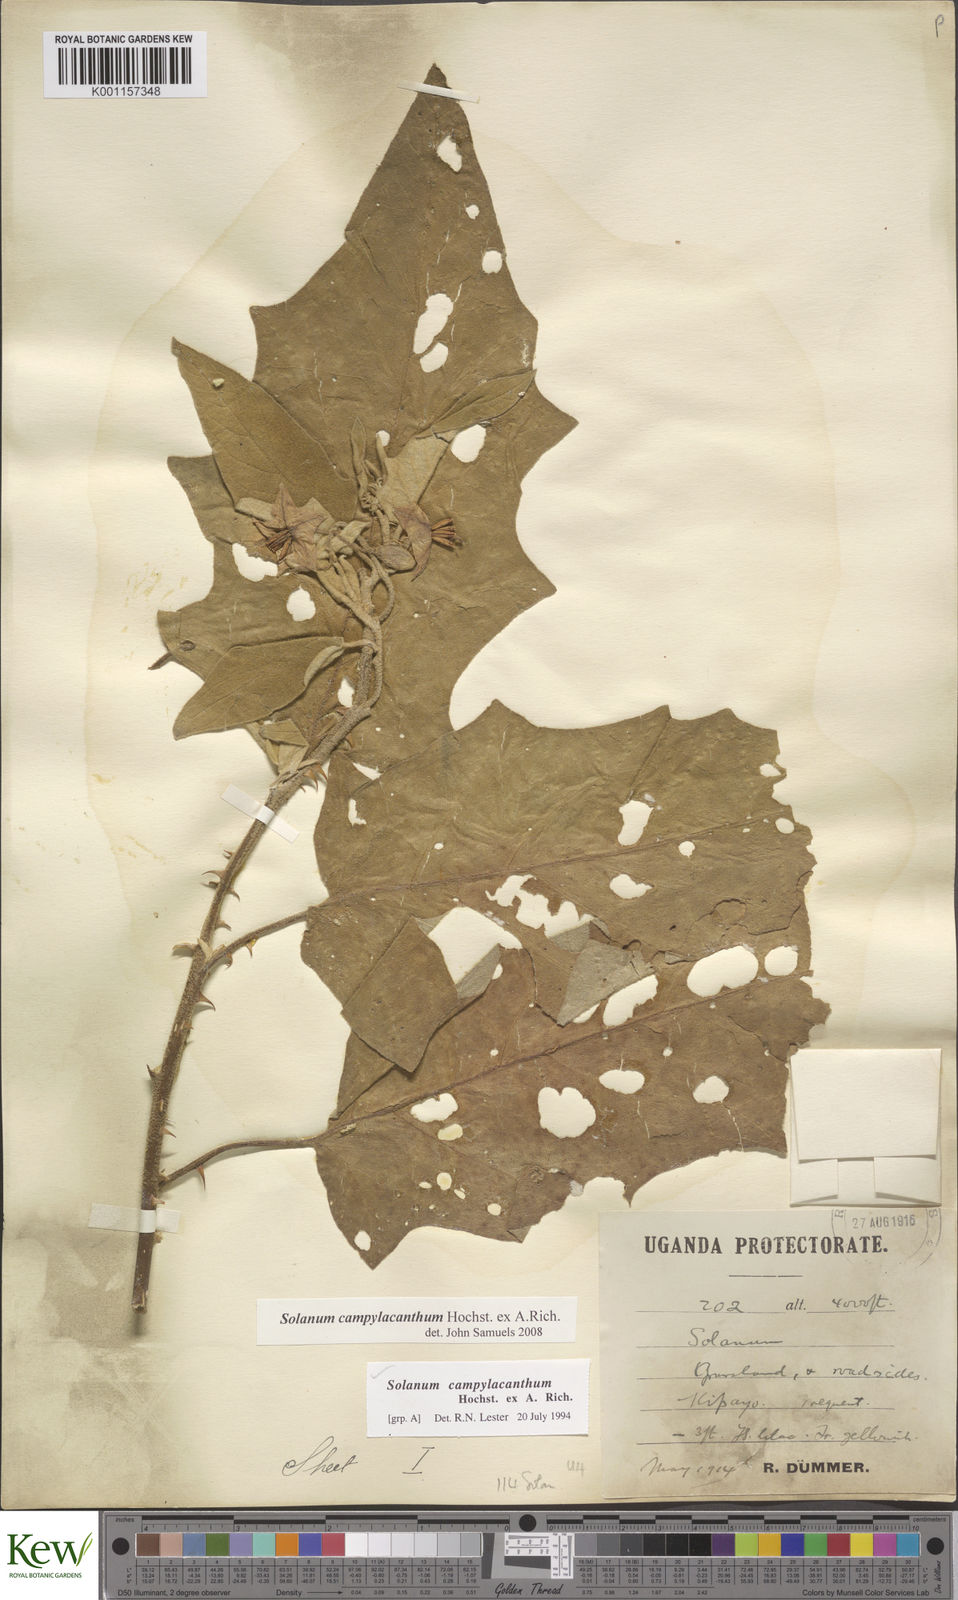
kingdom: Plantae
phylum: Tracheophyta
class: Magnoliopsida
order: Solanales
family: Solanaceae
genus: Solanum
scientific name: Solanum campylacanthum
